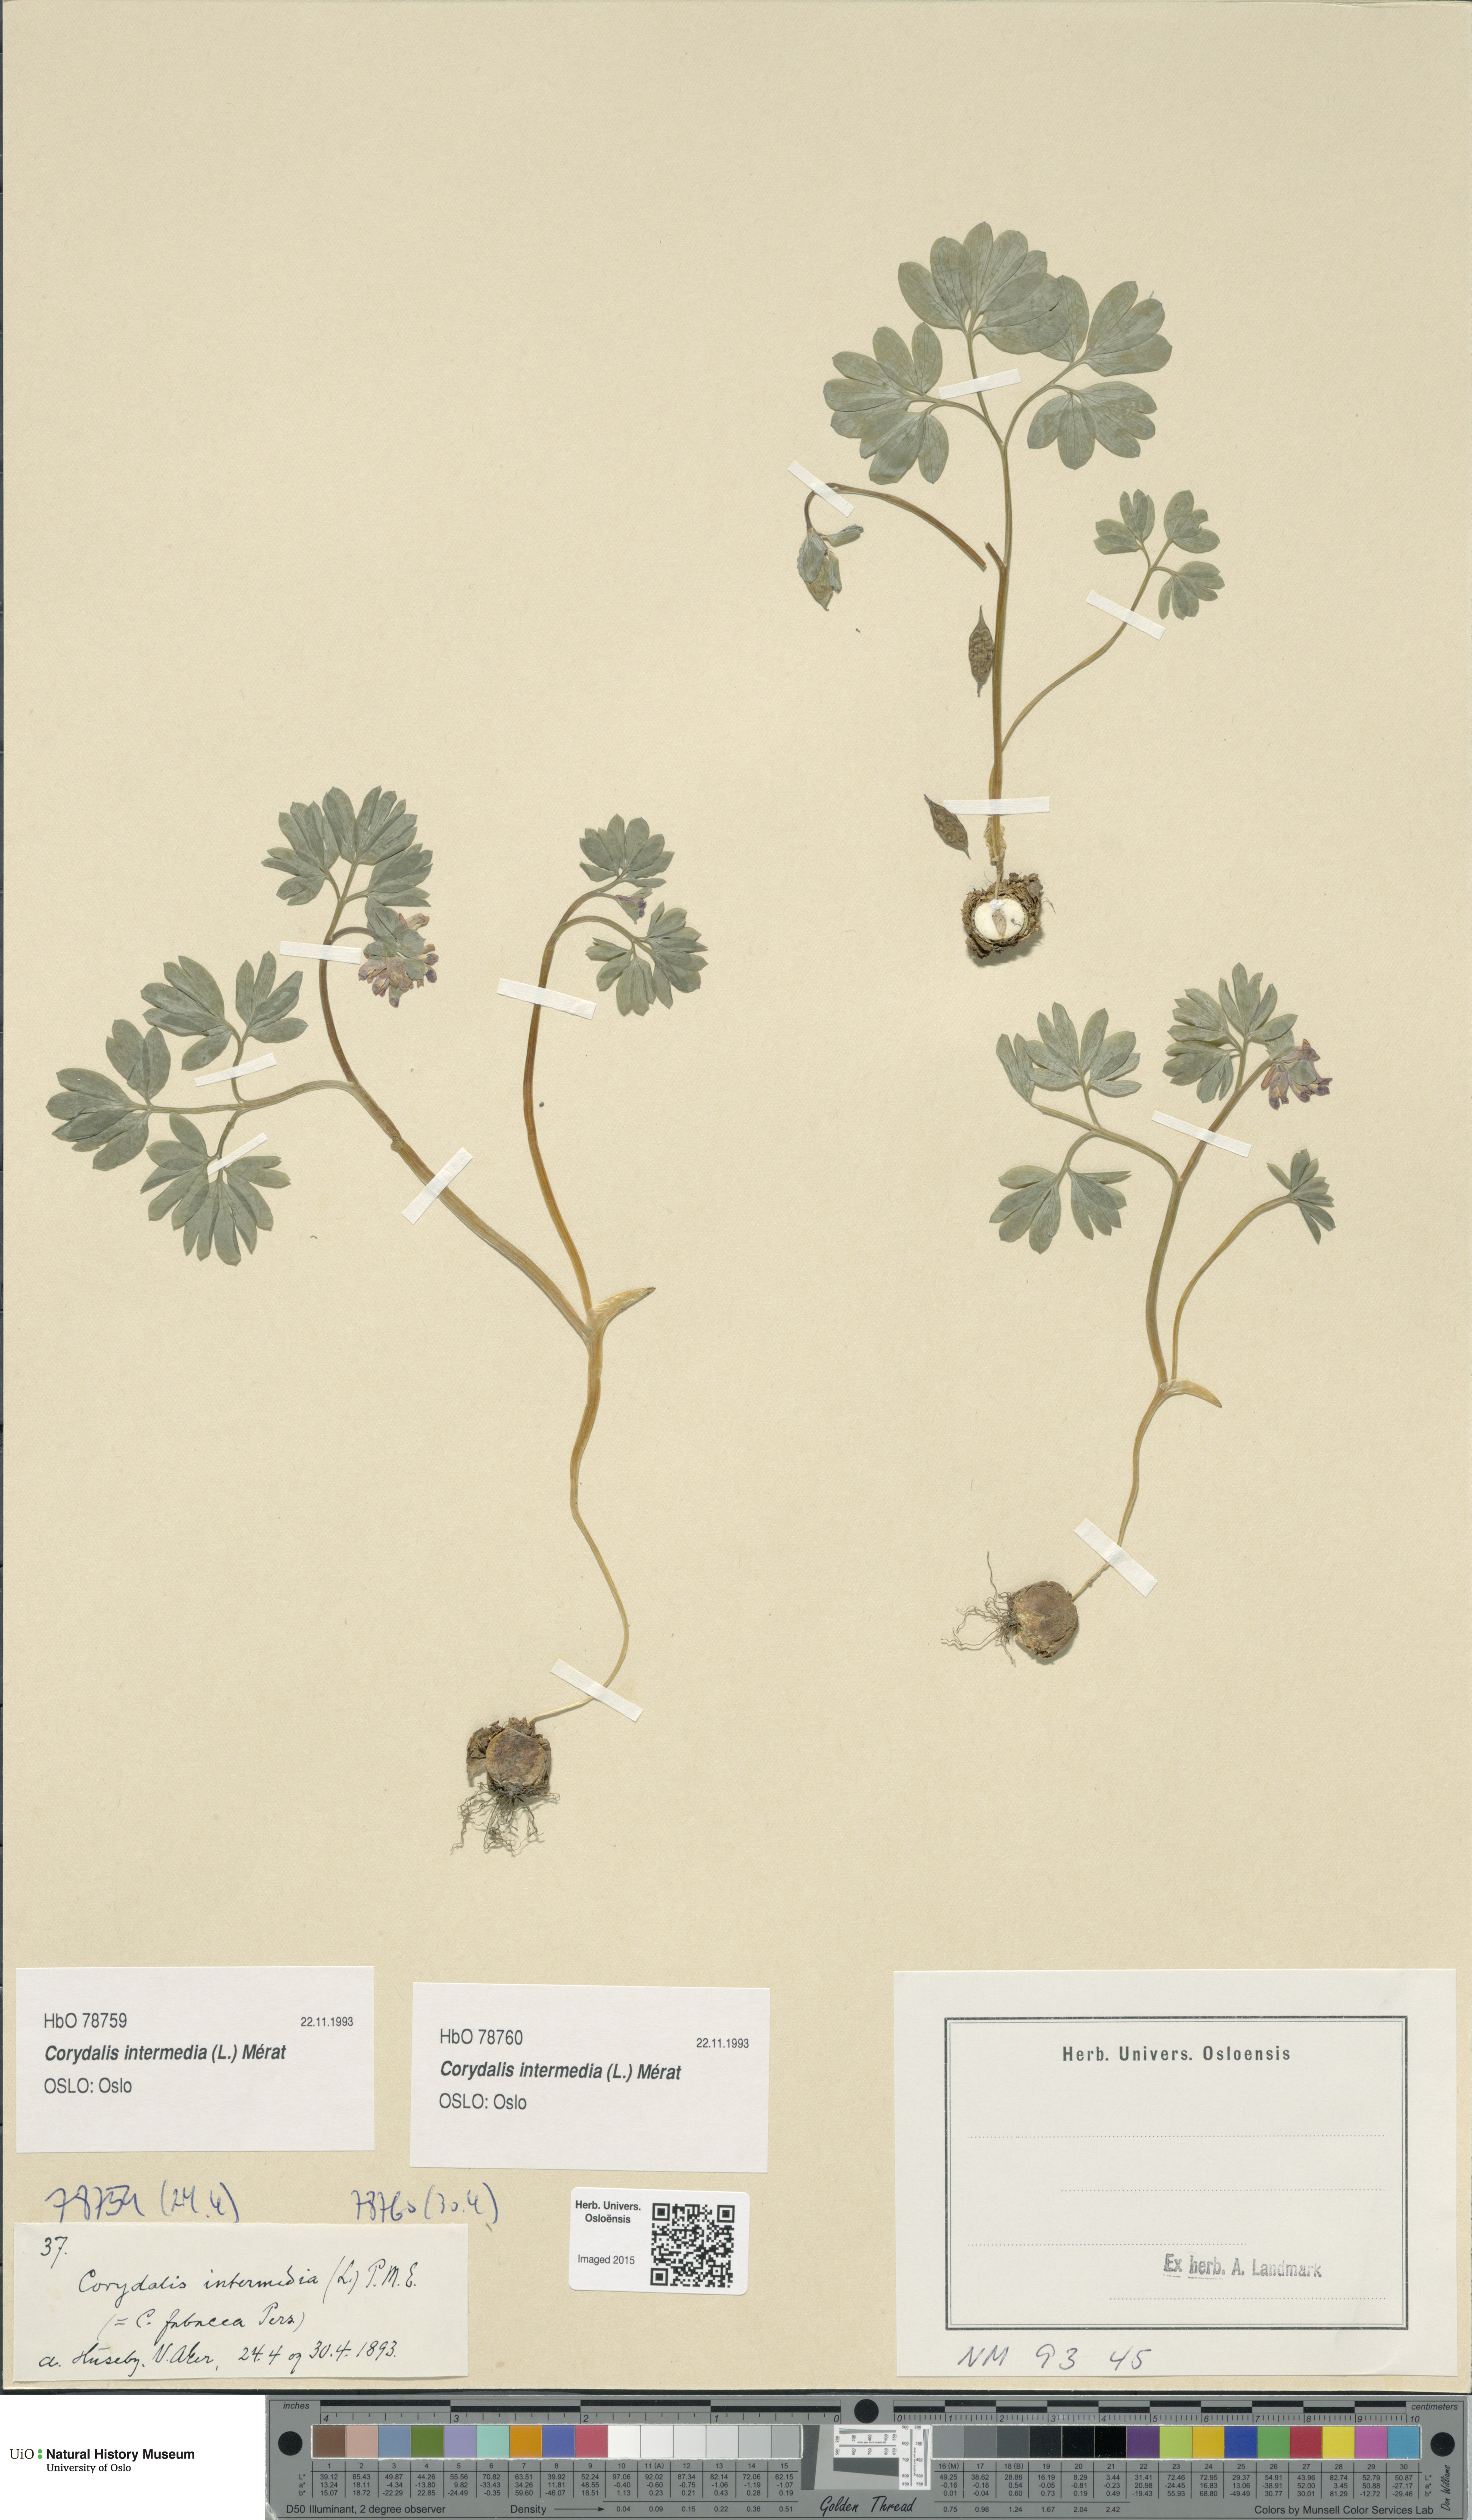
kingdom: Plantae
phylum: Tracheophyta
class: Magnoliopsida
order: Ranunculales
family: Papaveraceae
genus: Corydalis
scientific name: Corydalis intermedia
